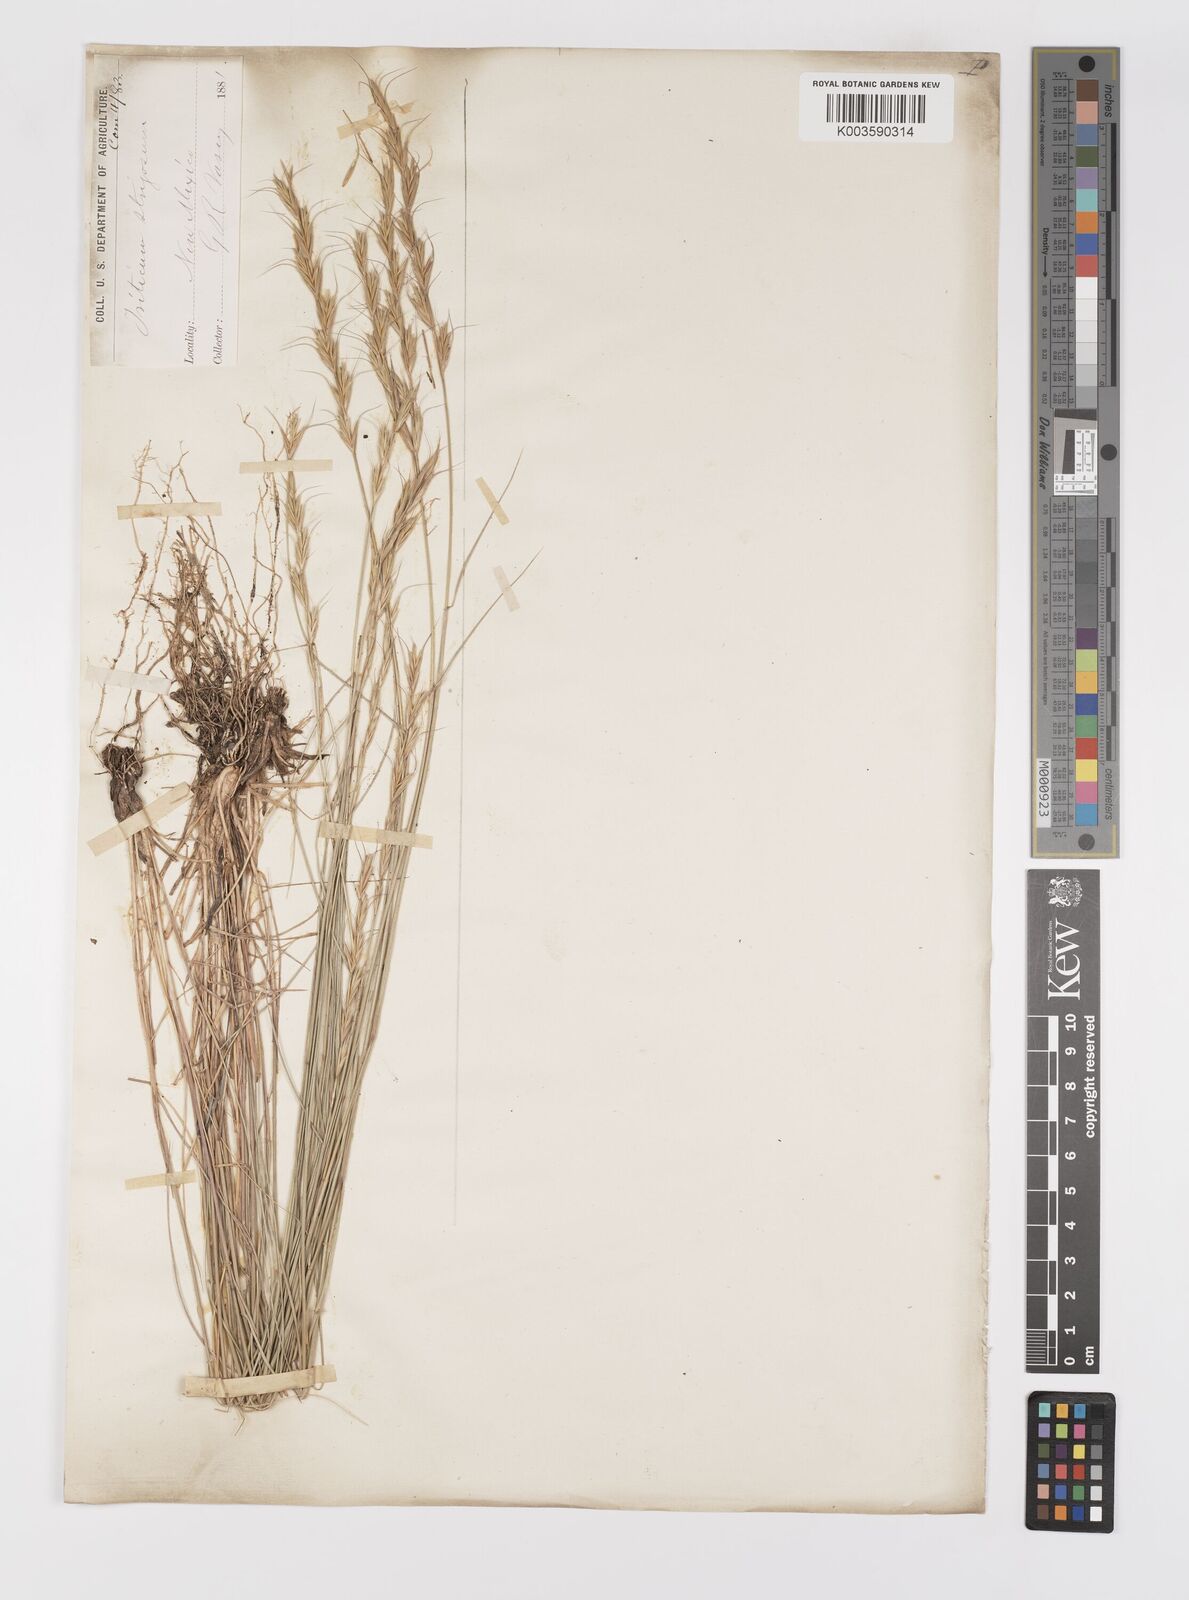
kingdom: Plantae
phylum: Tracheophyta
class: Liliopsida
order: Poales
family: Poaceae
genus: Elymus
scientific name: Elymus
